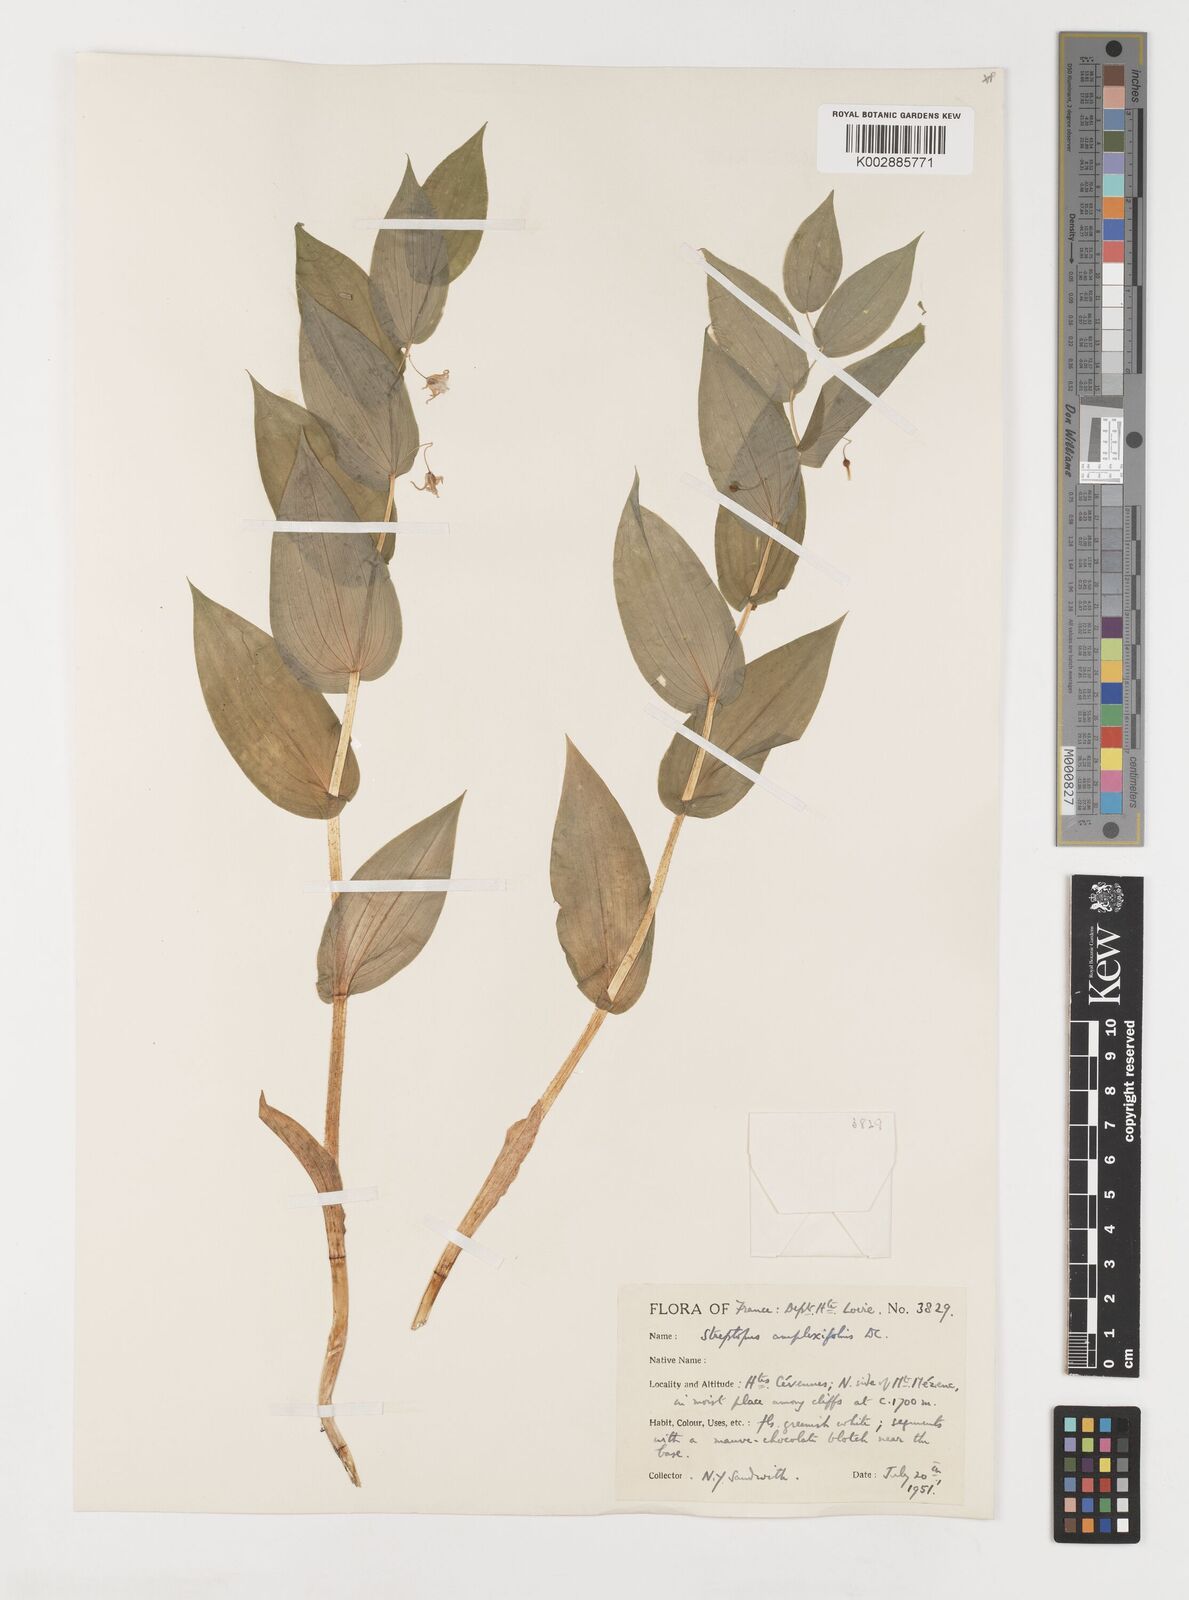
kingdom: Plantae
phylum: Tracheophyta
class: Liliopsida
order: Liliales
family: Liliaceae
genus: Streptopus
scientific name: Streptopus amplexifolius
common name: Clasp twisted stalk
